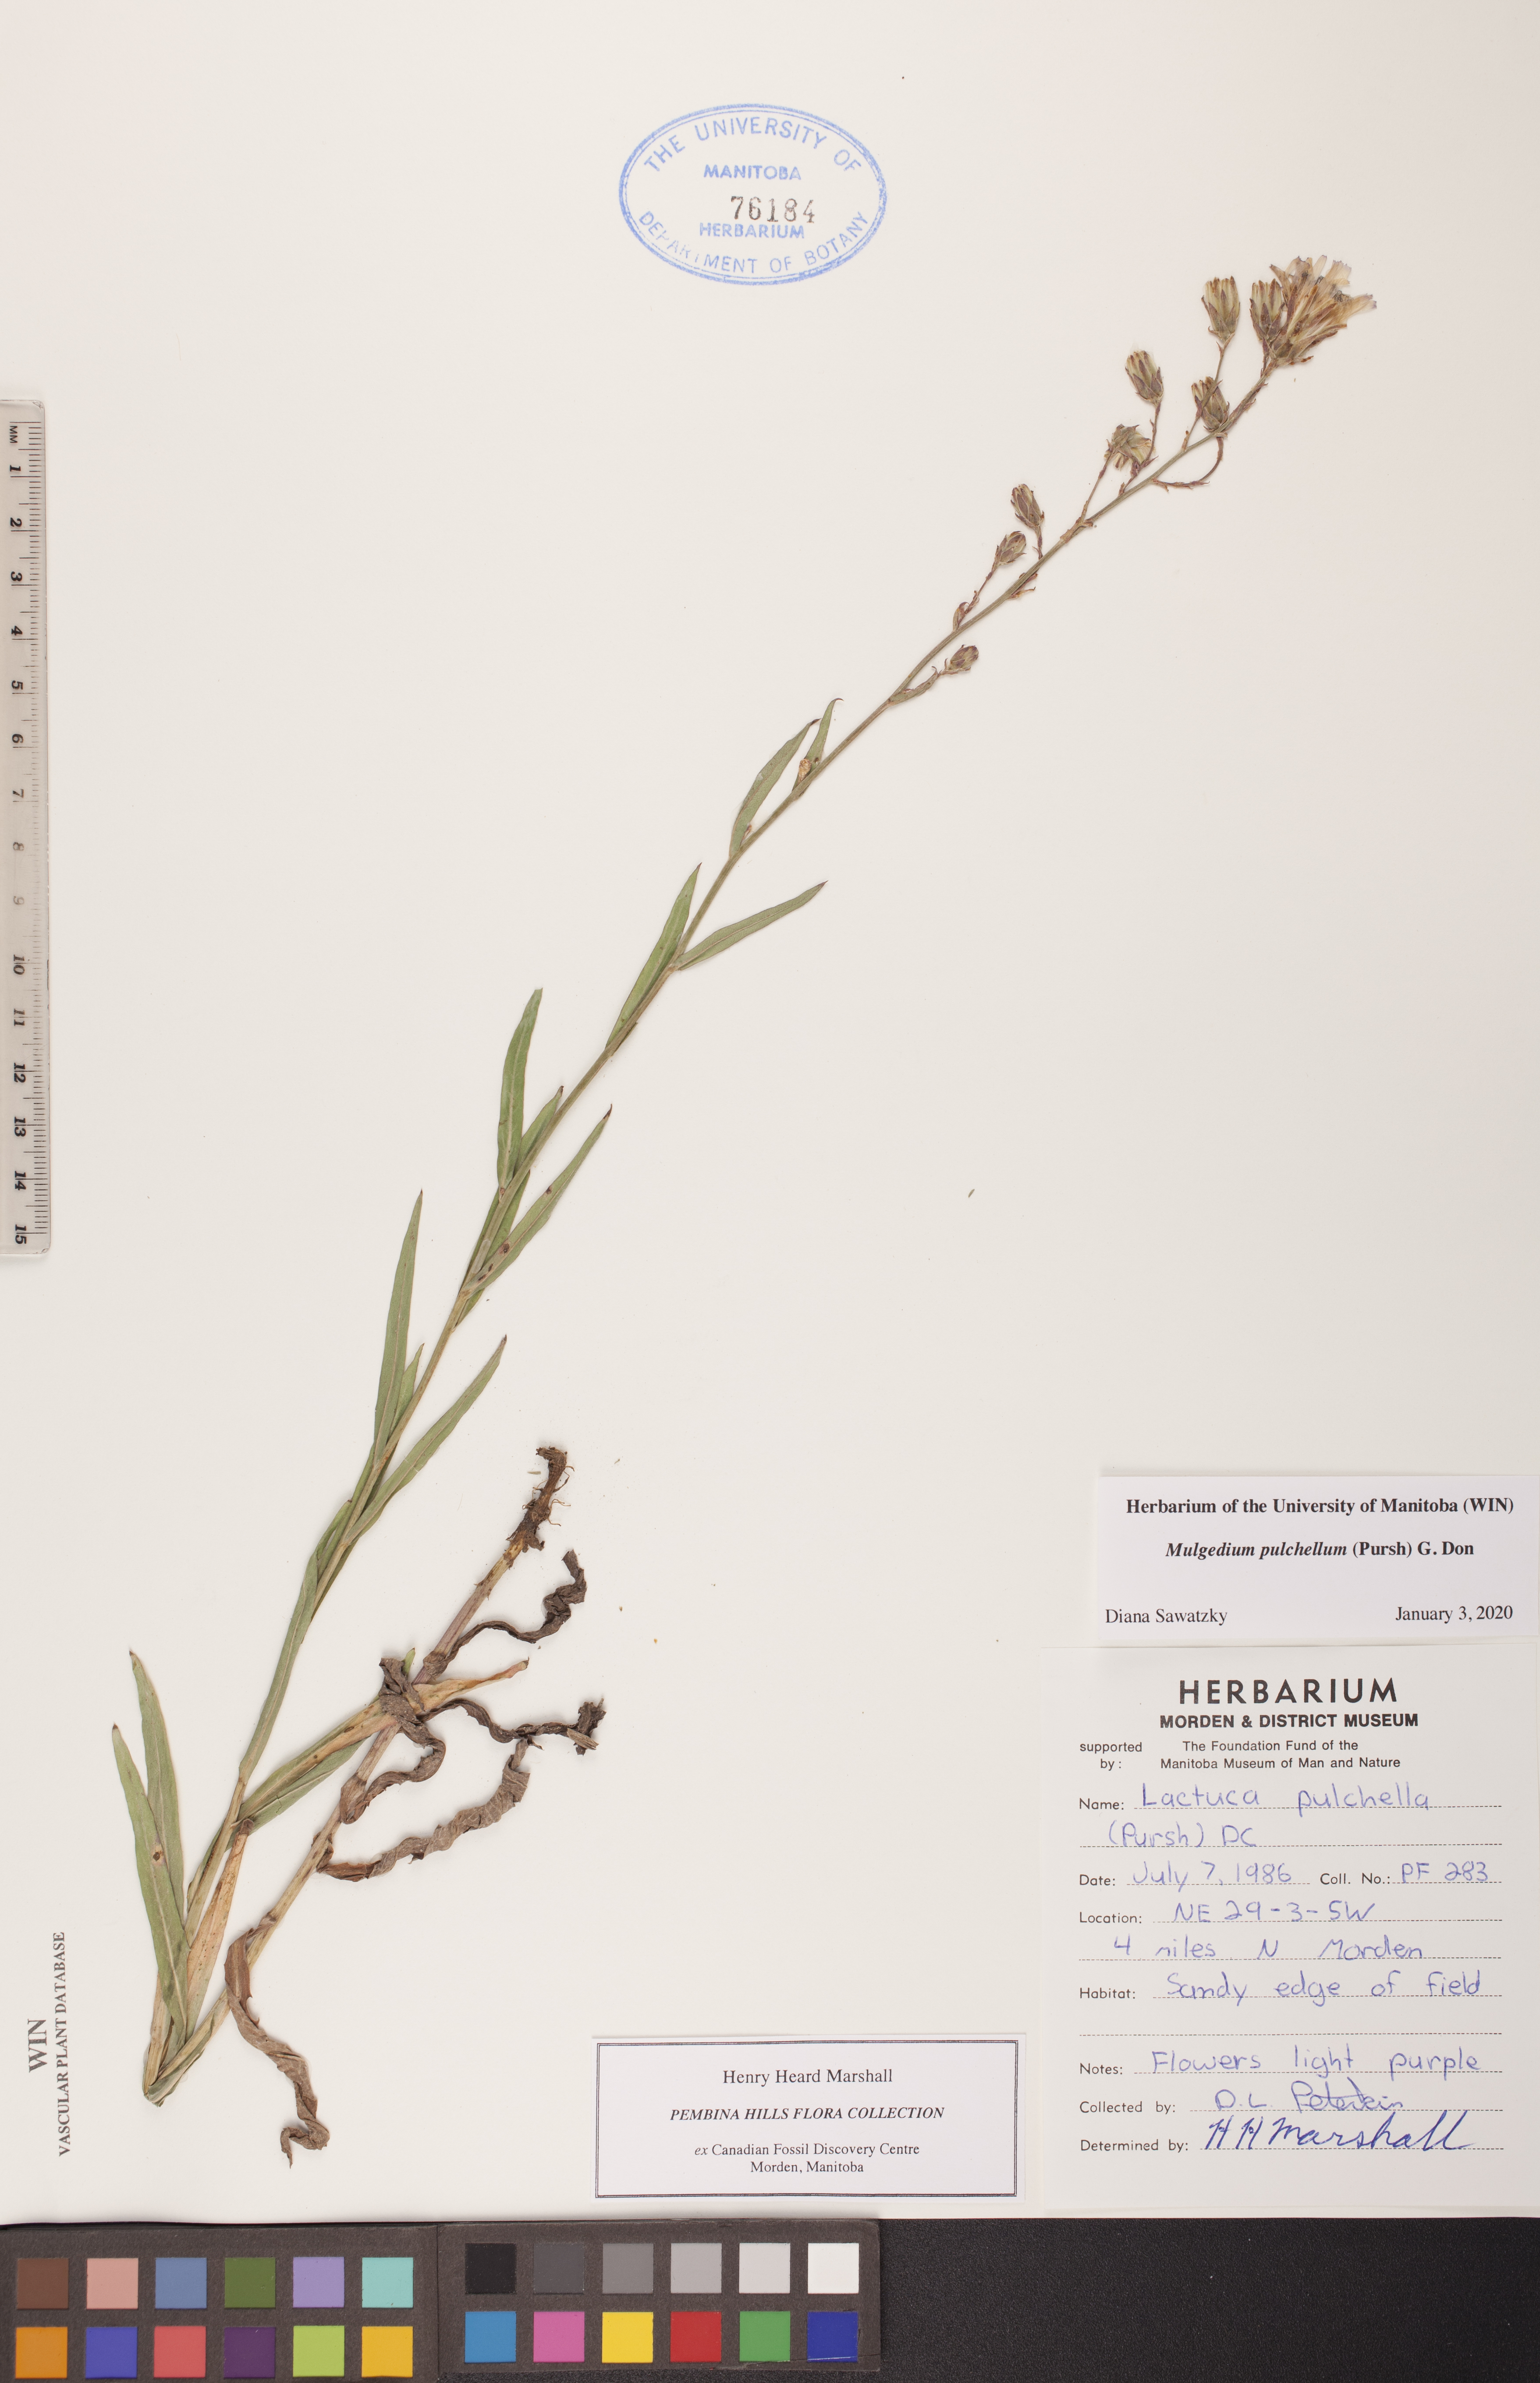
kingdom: Plantae
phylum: Tracheophyta
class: Magnoliopsida
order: Asterales
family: Asteraceae
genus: Lactuca
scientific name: Lactuca pulchella
